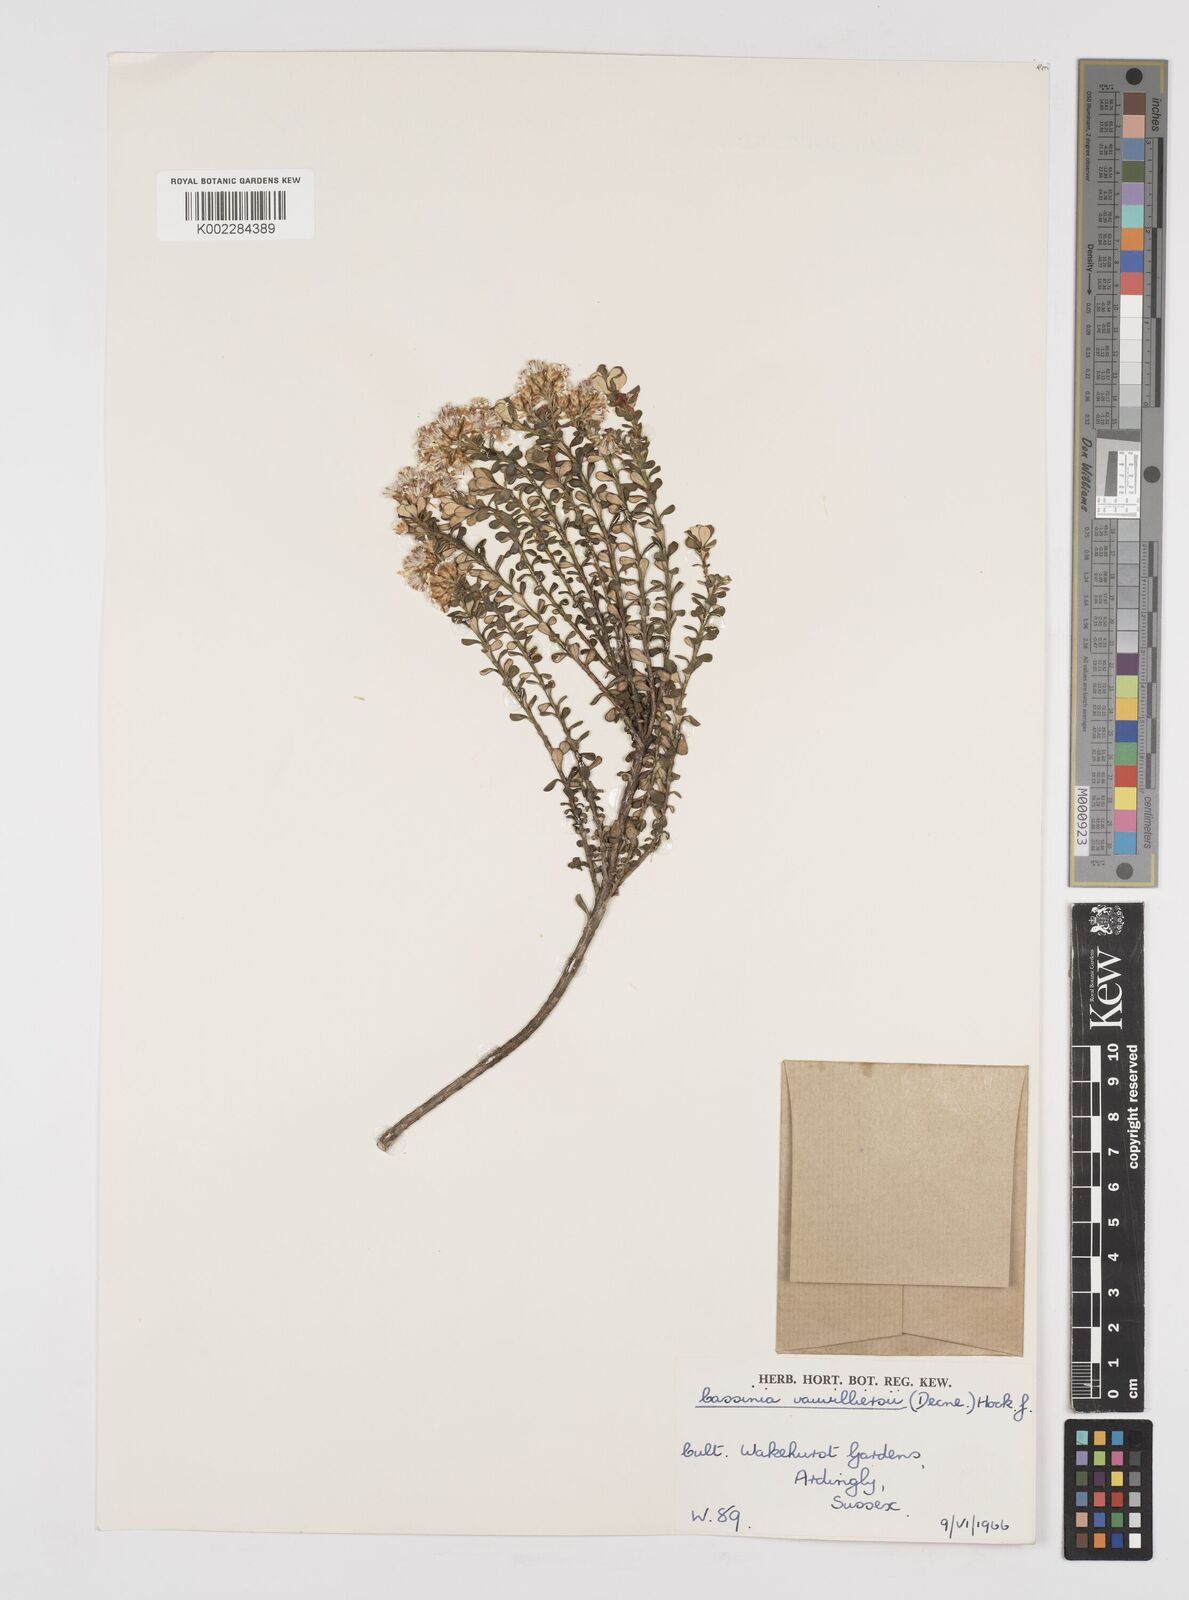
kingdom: Plantae
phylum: Tracheophyta
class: Magnoliopsida
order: Asterales
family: Asteraceae
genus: Ozothamnus
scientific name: Ozothamnus leptophyllus
